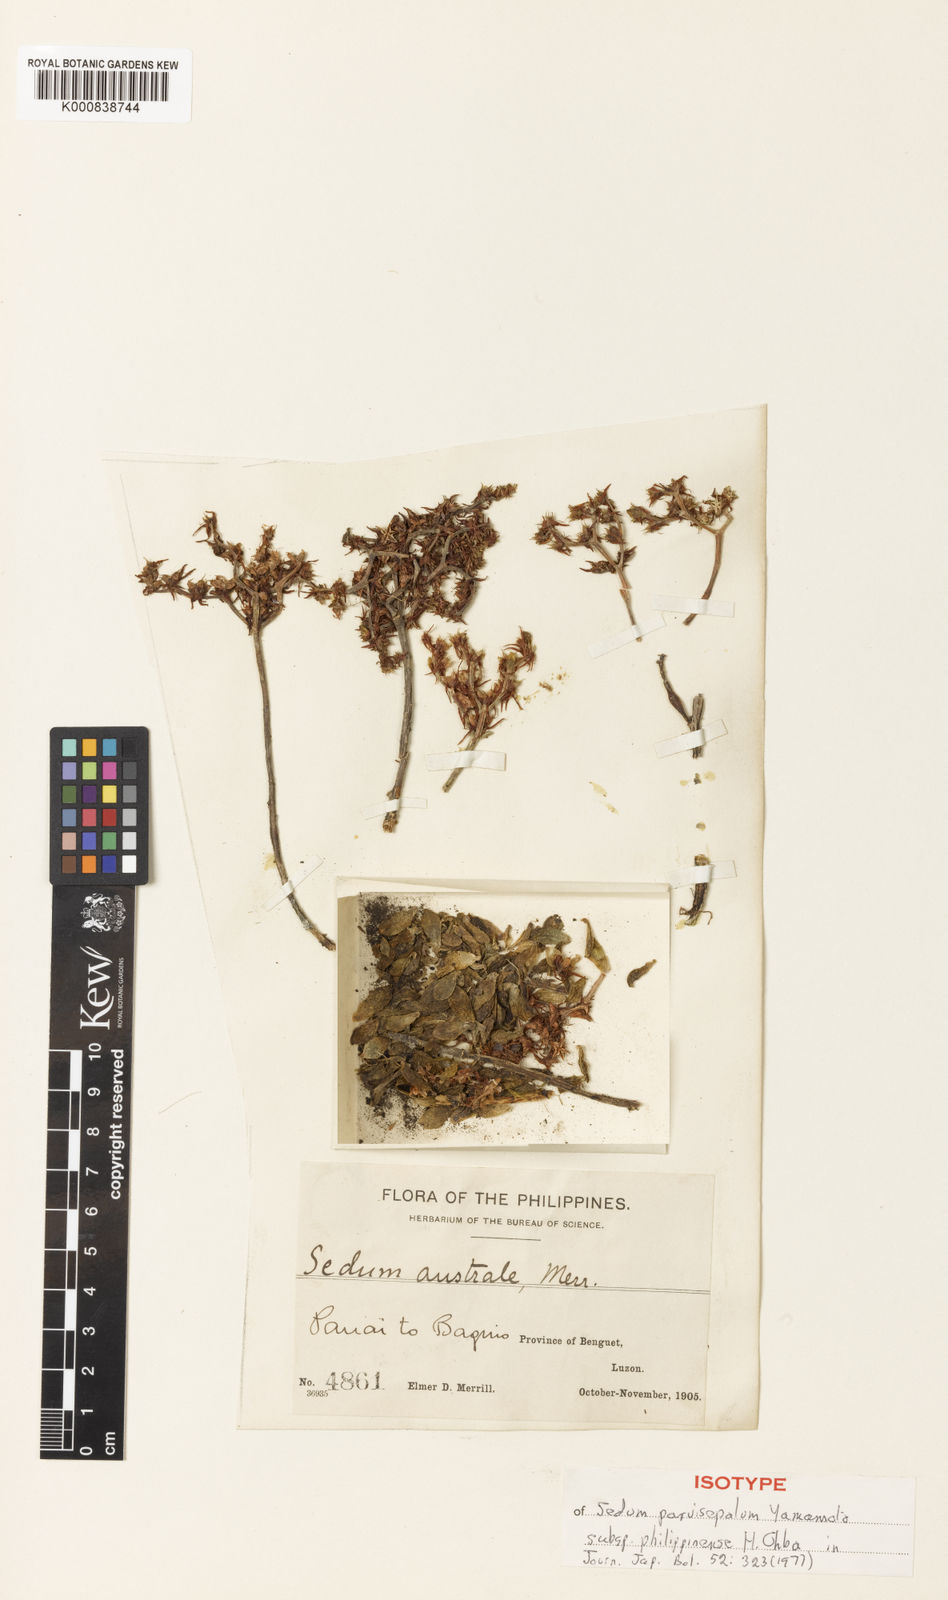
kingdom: Plantae
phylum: Tracheophyta
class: Magnoliopsida
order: Saxifragales
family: Crassulaceae
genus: Sedum
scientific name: Sedum parvisepalum
